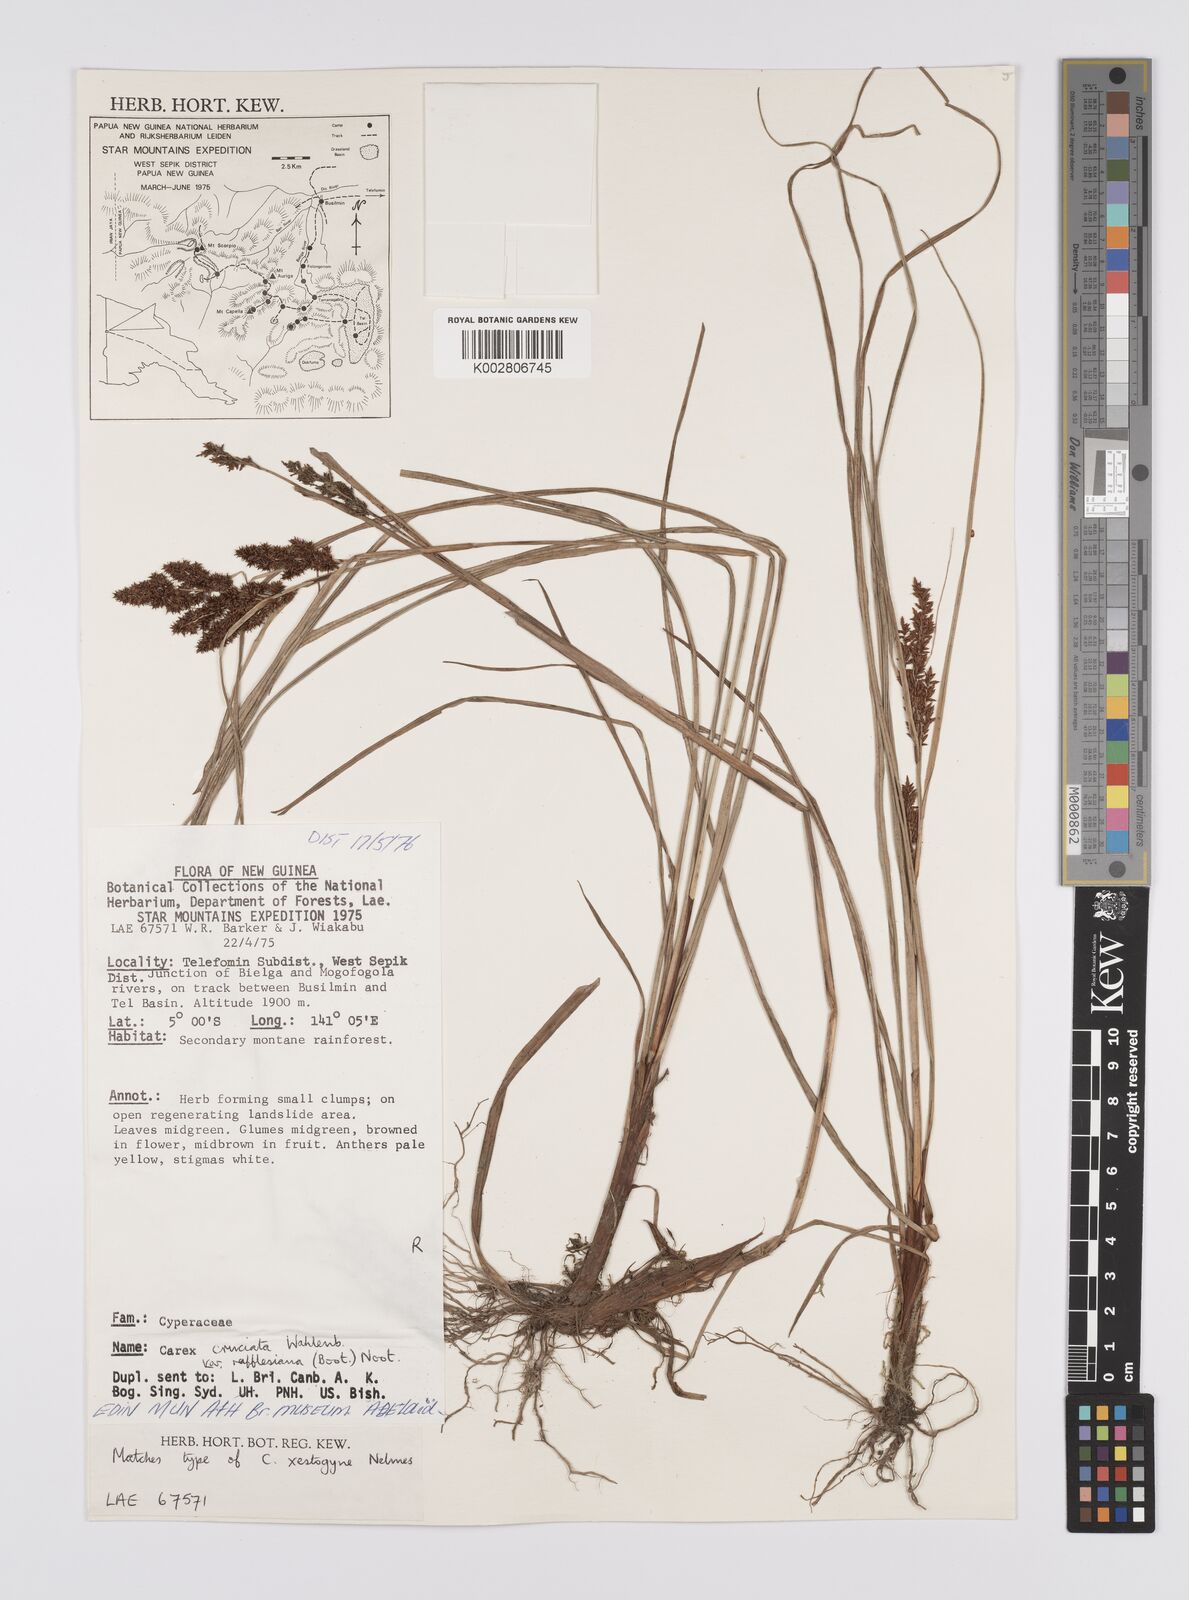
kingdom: Plantae
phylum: Tracheophyta
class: Liliopsida
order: Poales
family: Cyperaceae
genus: Carex
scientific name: Carex rafflesiana
